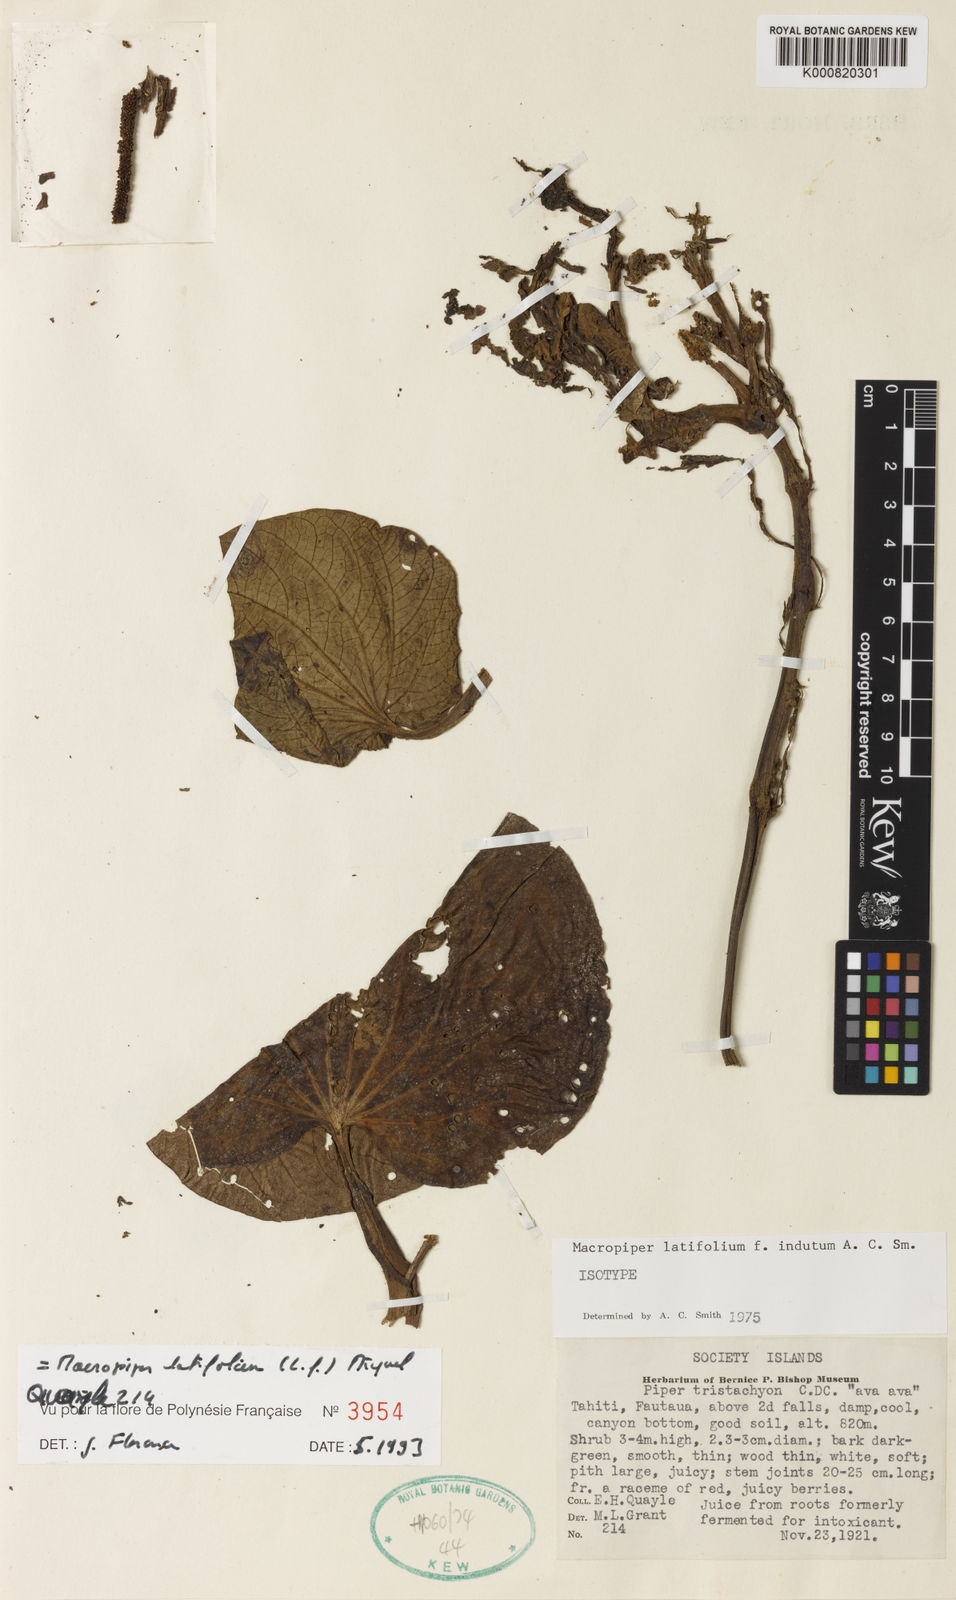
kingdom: Plantae
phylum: Tracheophyta
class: Magnoliopsida
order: Piperales
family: Piperaceae
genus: Macropiper
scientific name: Macropiper latifolium
